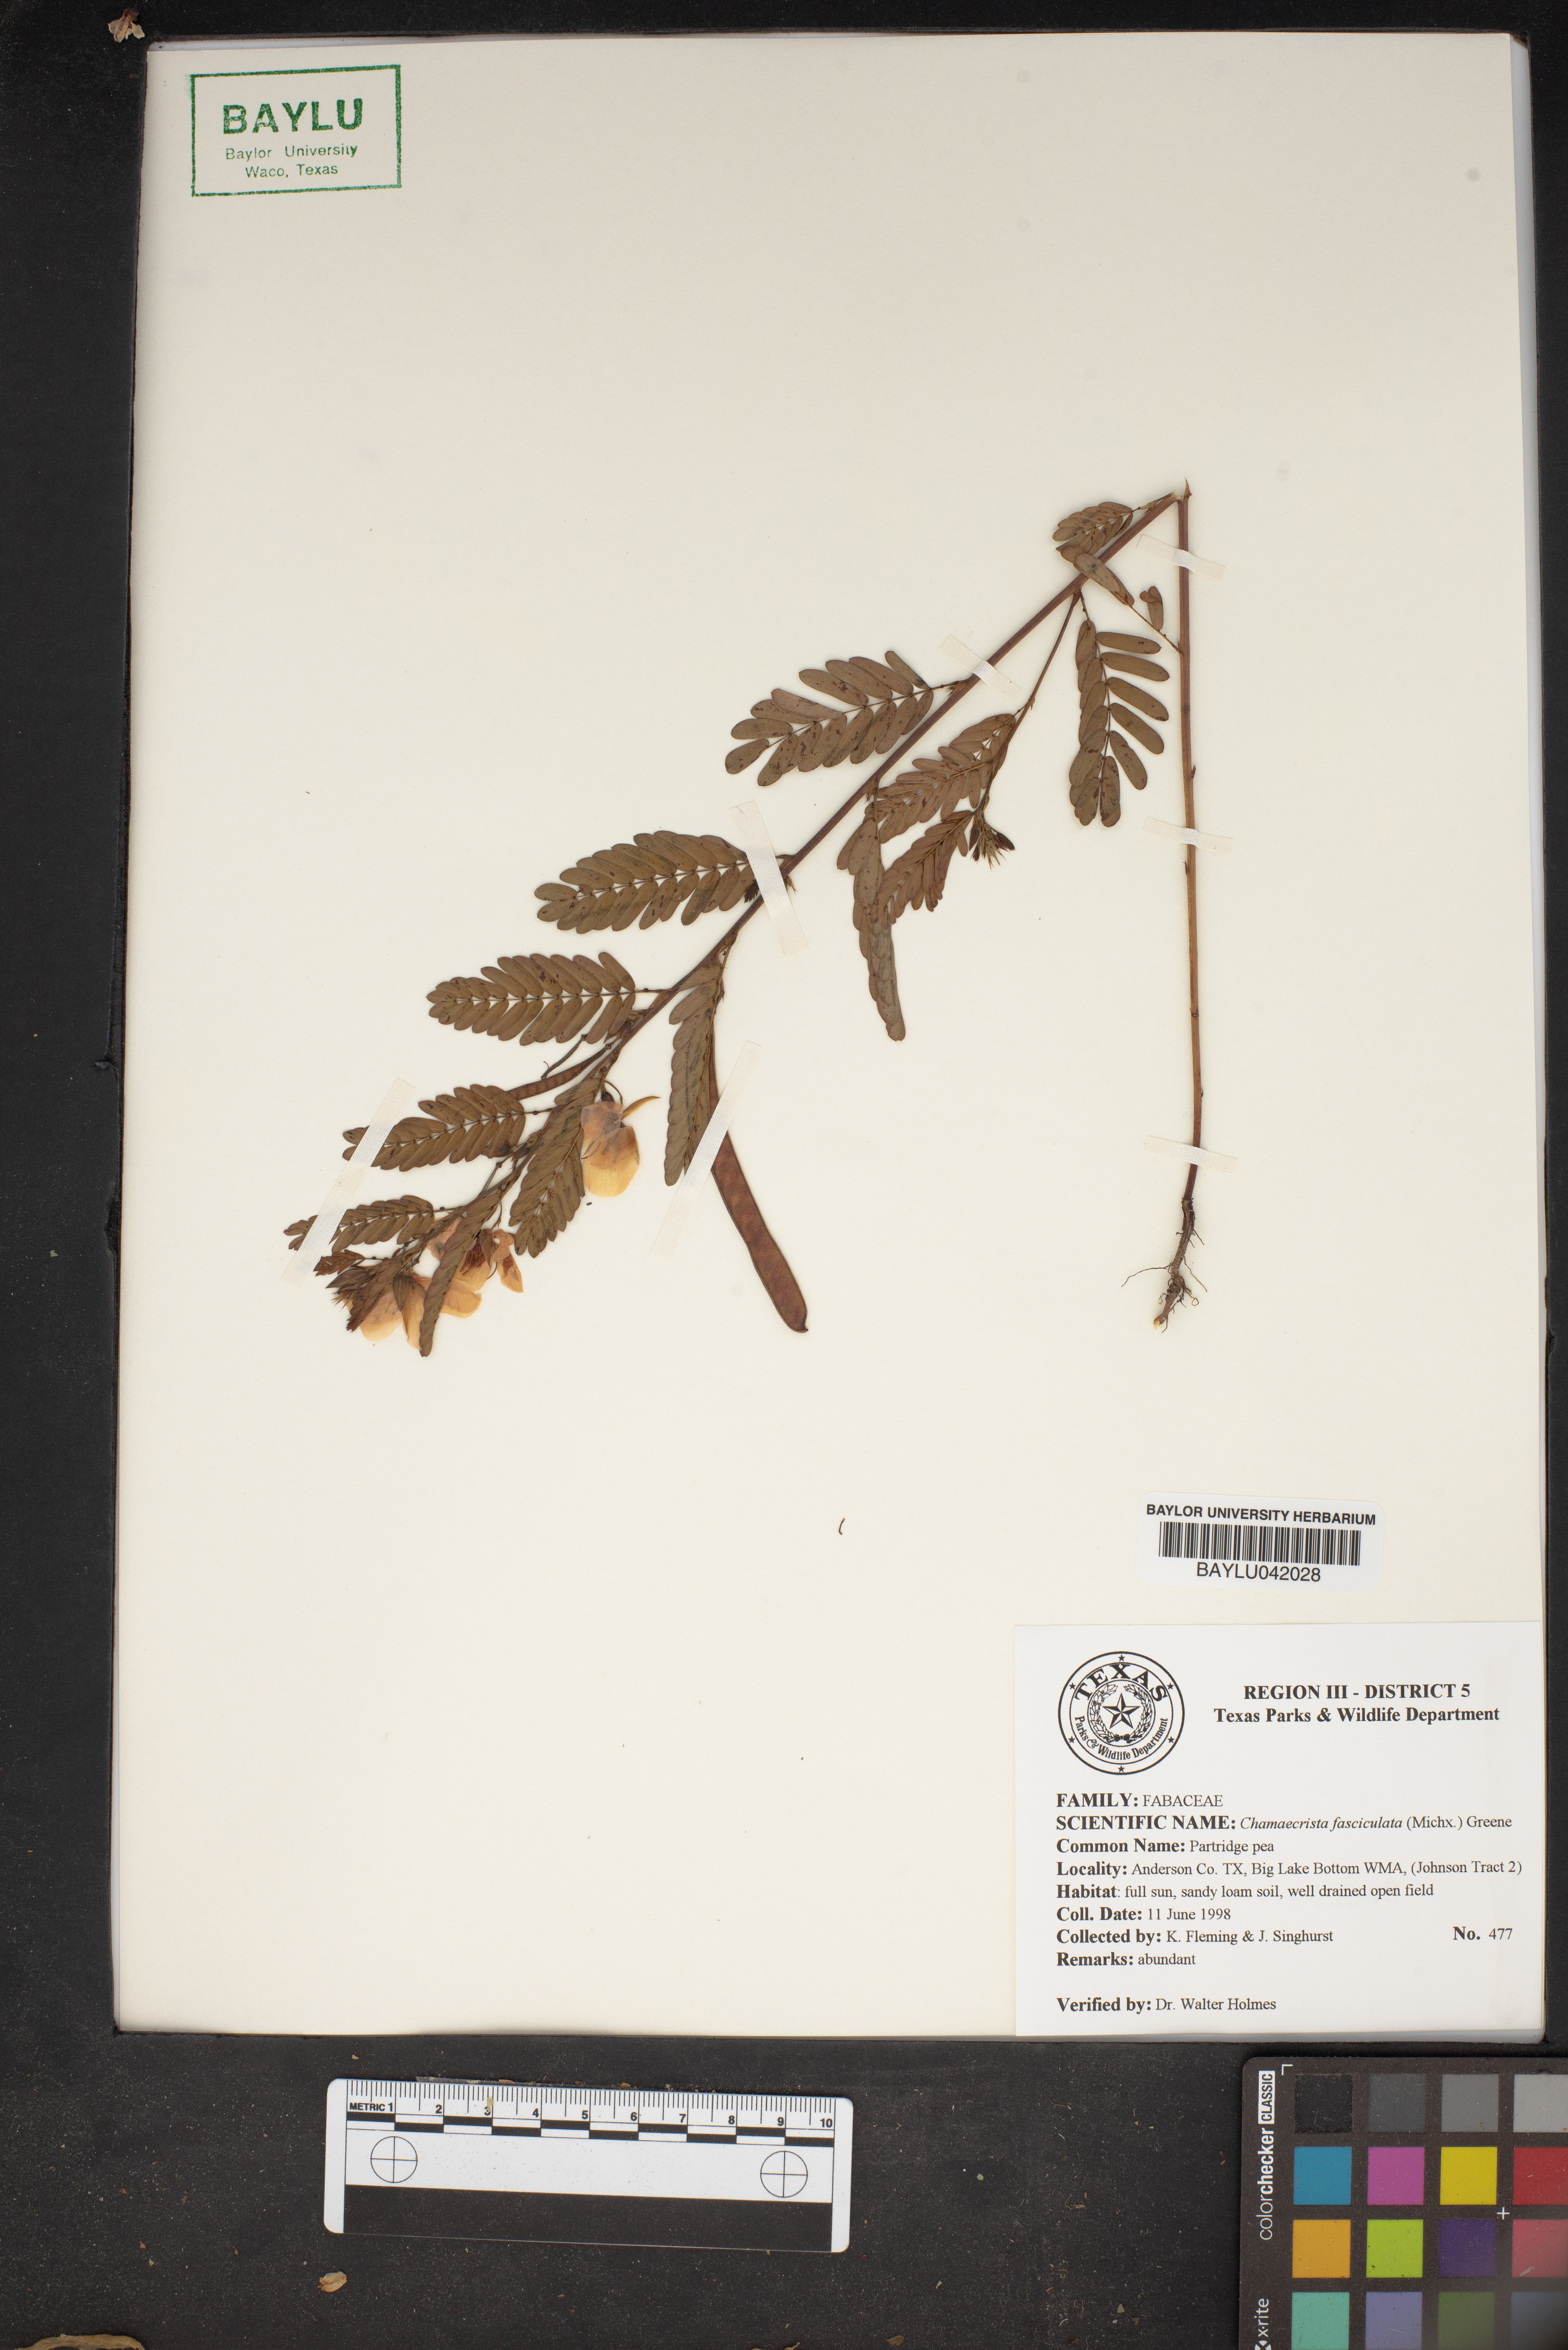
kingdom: Plantae
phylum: Tracheophyta
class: Magnoliopsida
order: Fabales
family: Fabaceae
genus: Chamaecrista
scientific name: Chamaecrista fasciculata
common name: Golden cassia
